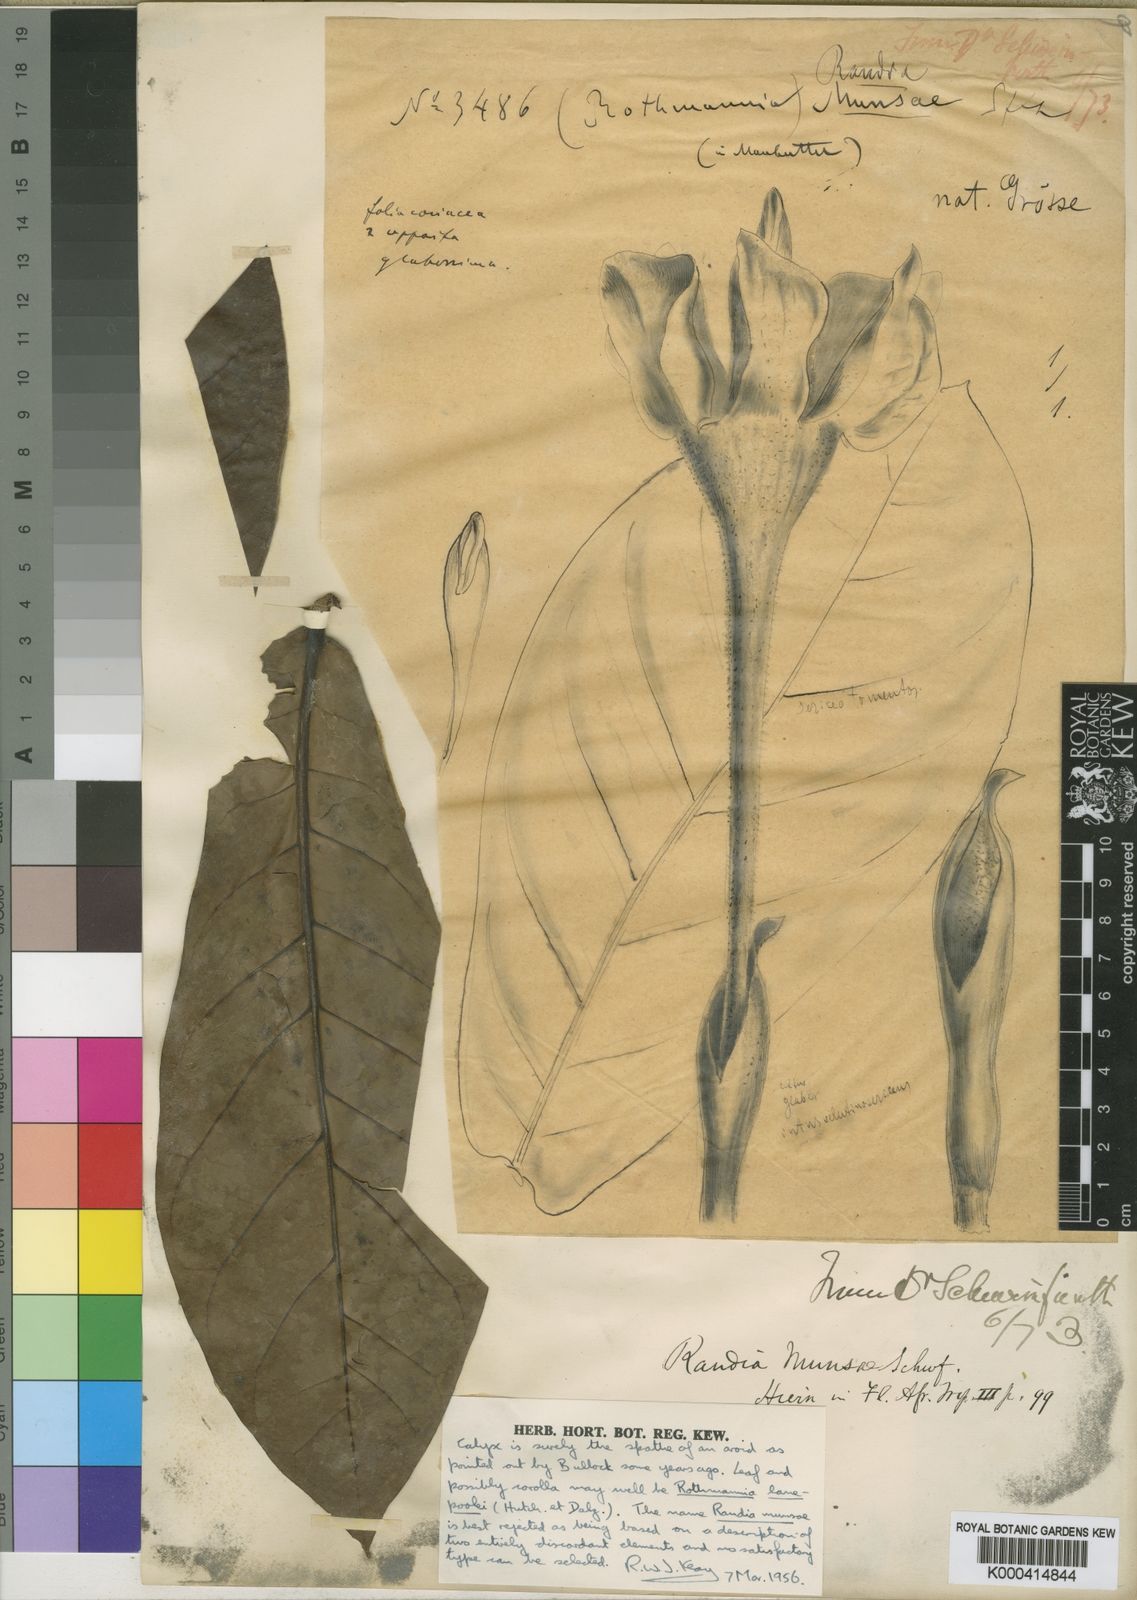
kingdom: Plantae
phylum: Tracheophyta
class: Magnoliopsida
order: Gentianales
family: Rubiaceae
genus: Rothmannia
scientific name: Rothmannia munsae
